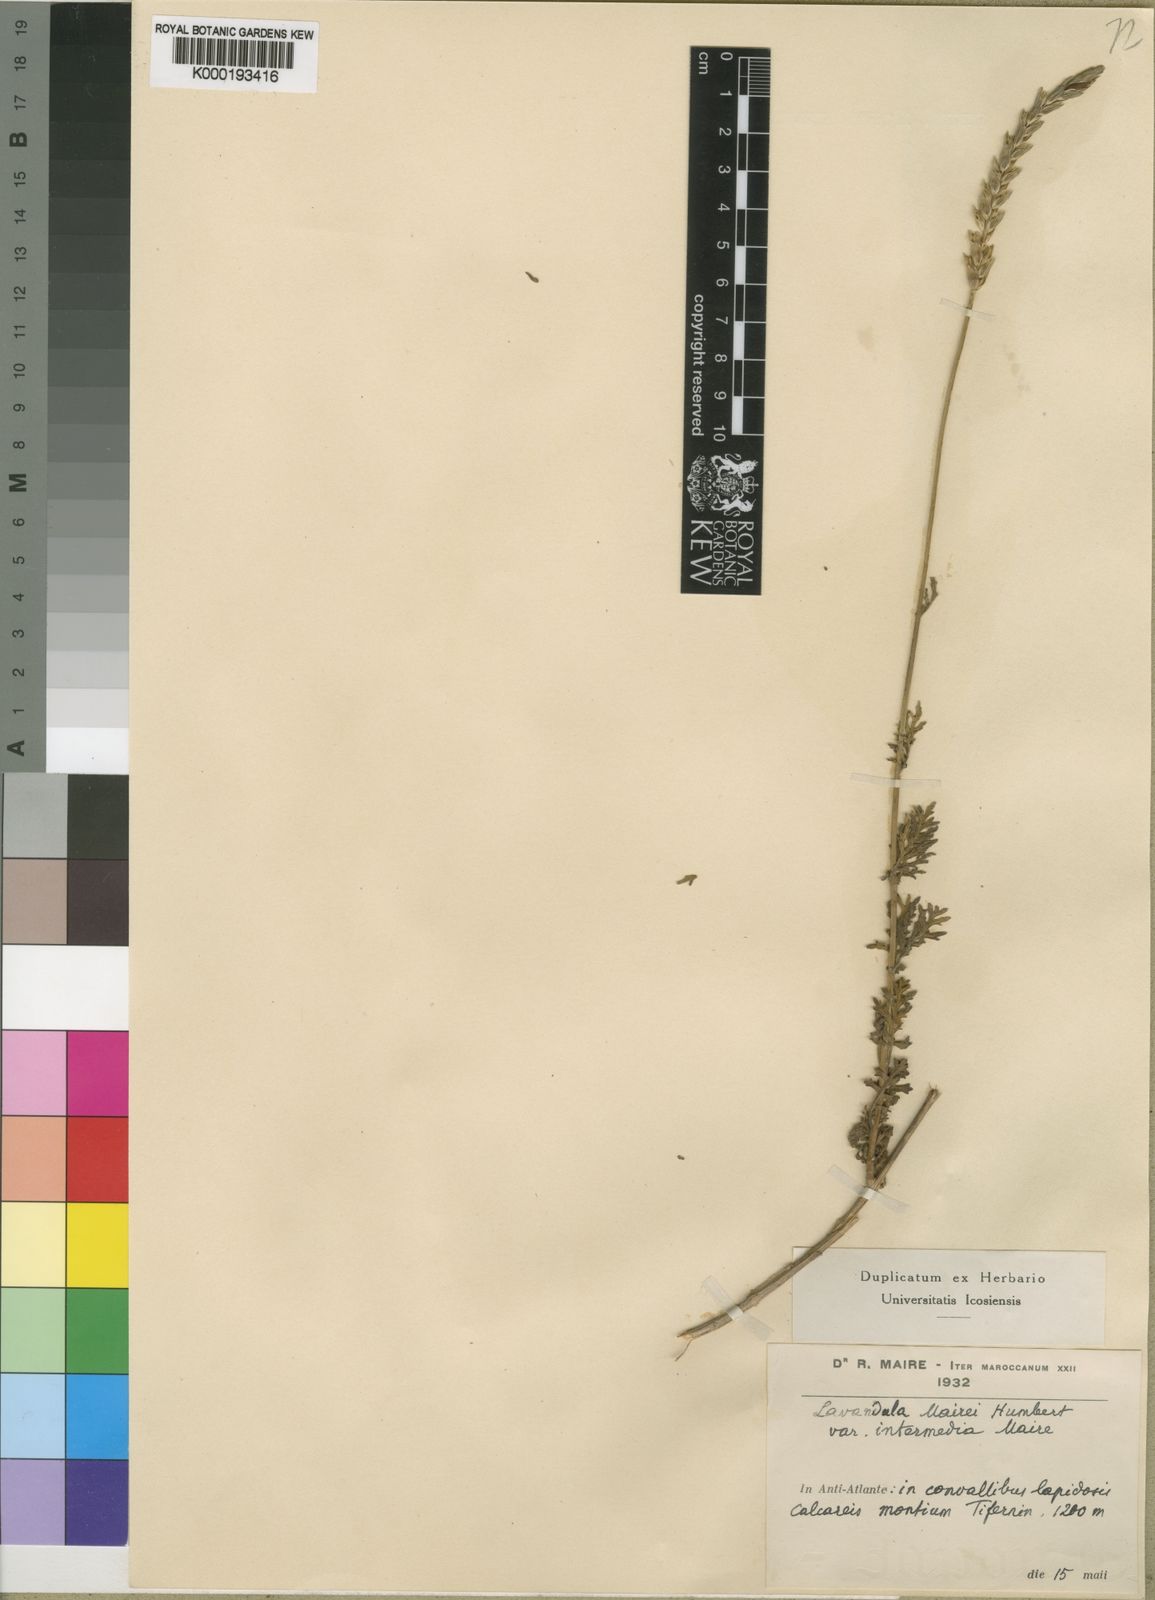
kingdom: Plantae
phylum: Tracheophyta
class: Magnoliopsida
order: Lamiales
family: Lamiaceae
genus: Lavandula
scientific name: Lavandula mairei
